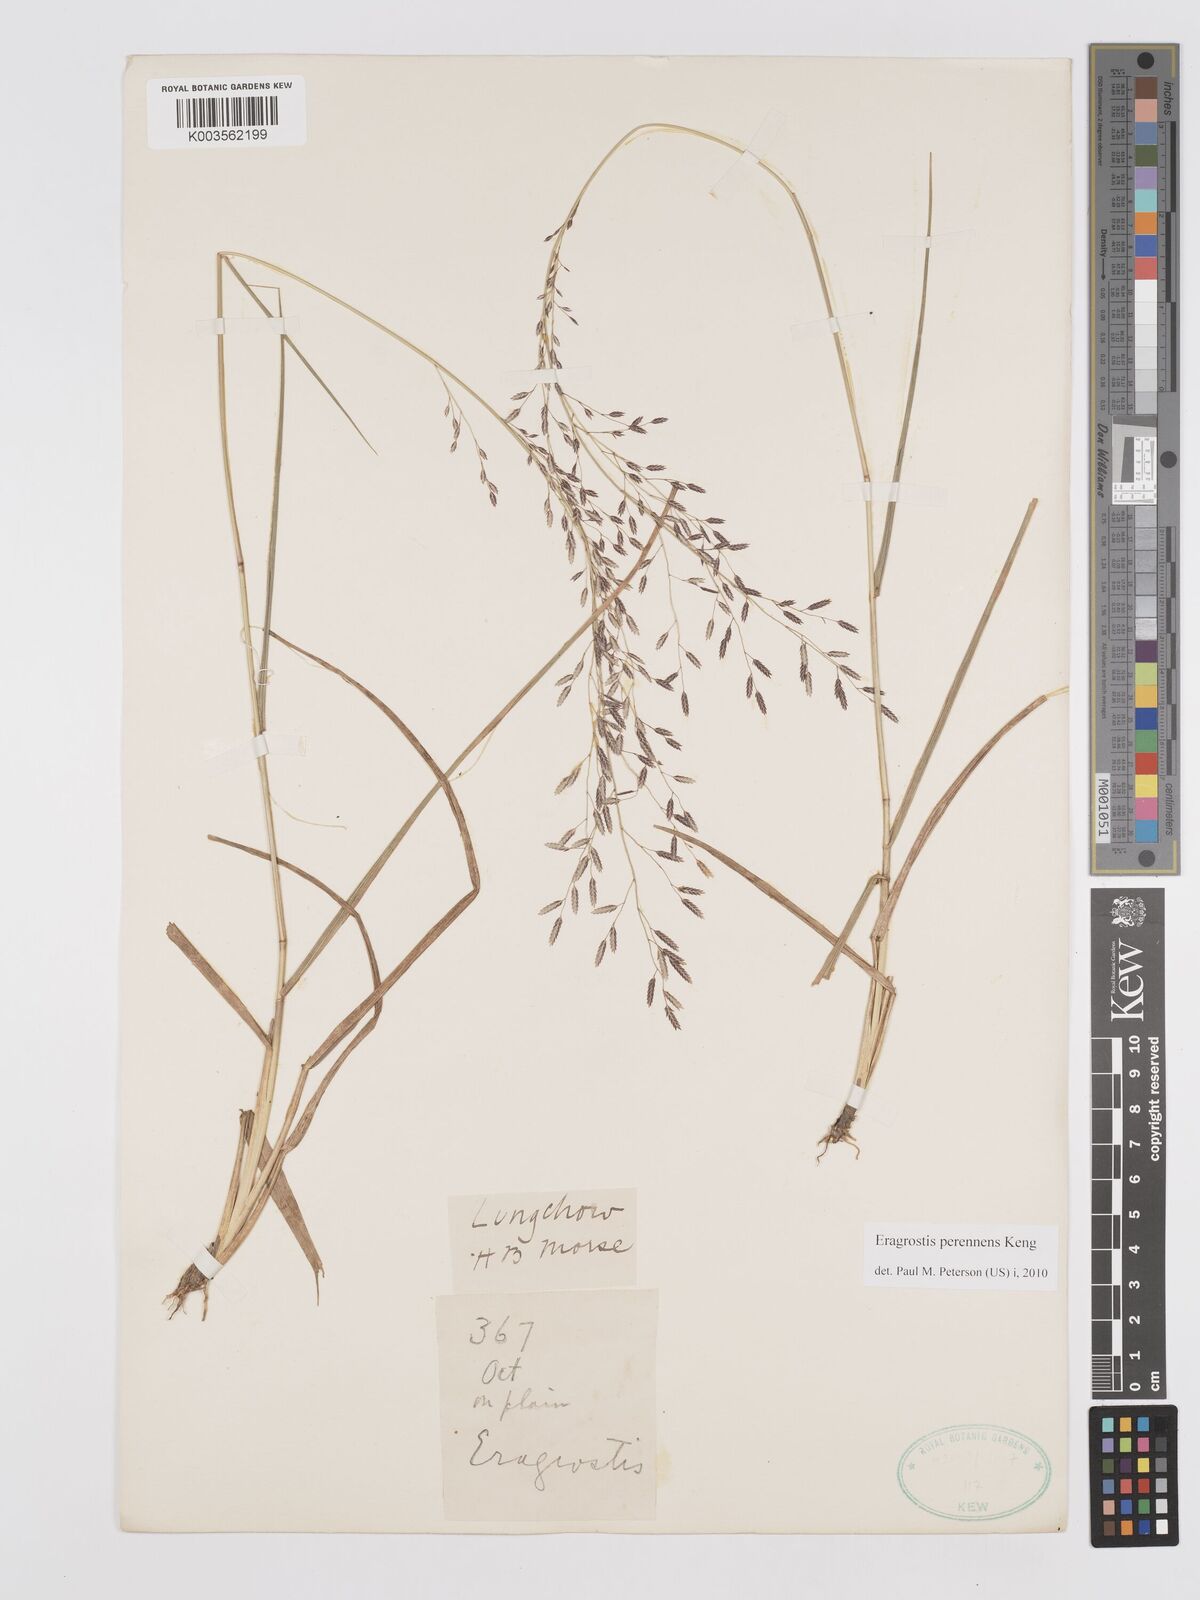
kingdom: Plantae
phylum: Tracheophyta
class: Liliopsida
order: Poales
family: Poaceae
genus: Eragrostis
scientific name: Eragrostis perennans
